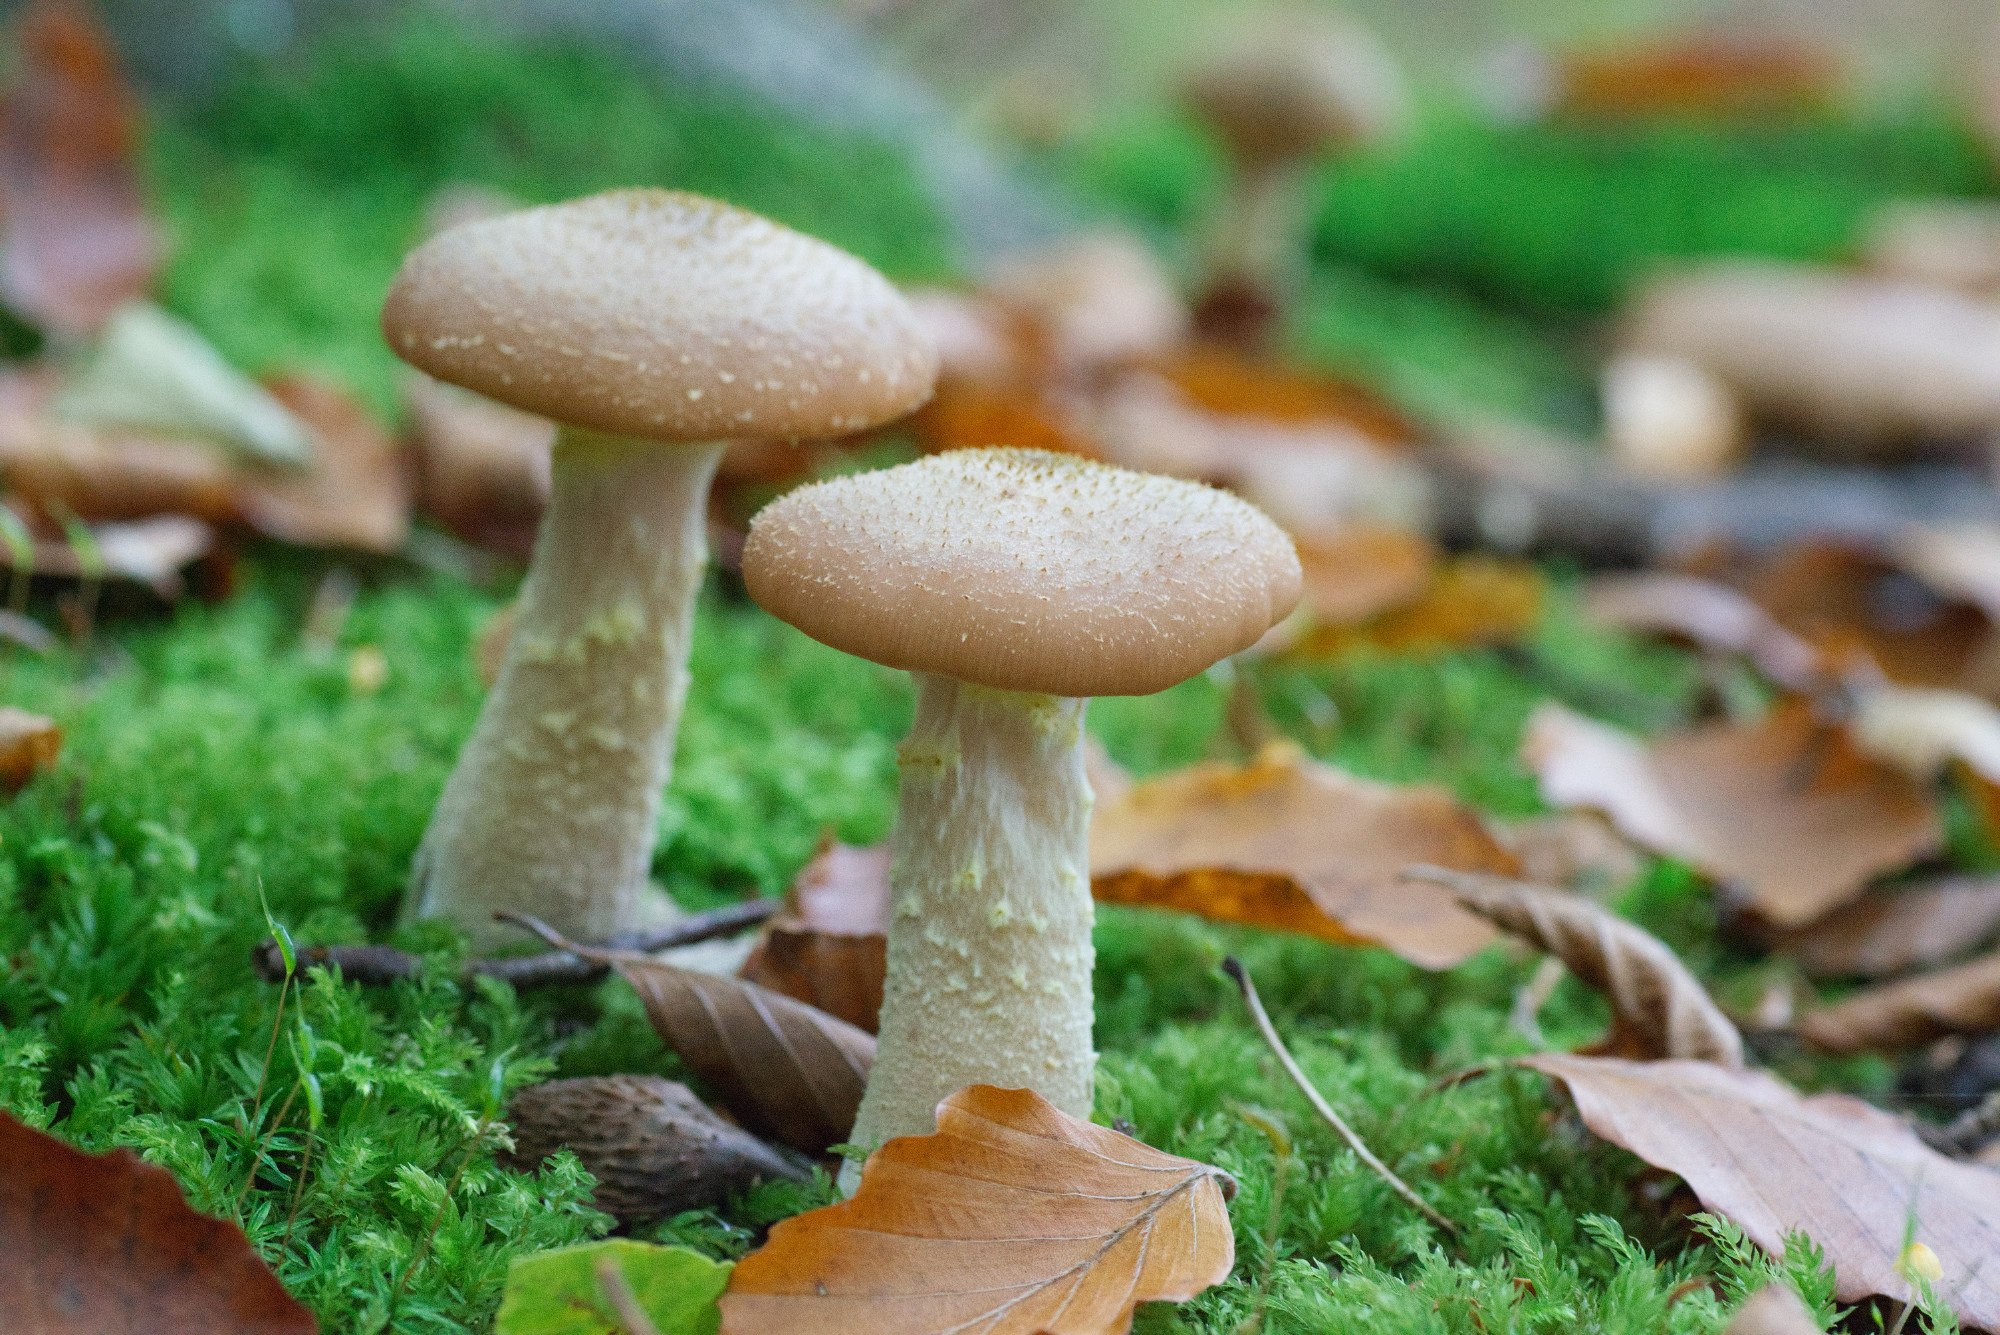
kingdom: Fungi
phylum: Basidiomycota
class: Agaricomycetes
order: Agaricales
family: Physalacriaceae
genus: Armillaria
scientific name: Armillaria lutea
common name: køllestokket honningsvamp
